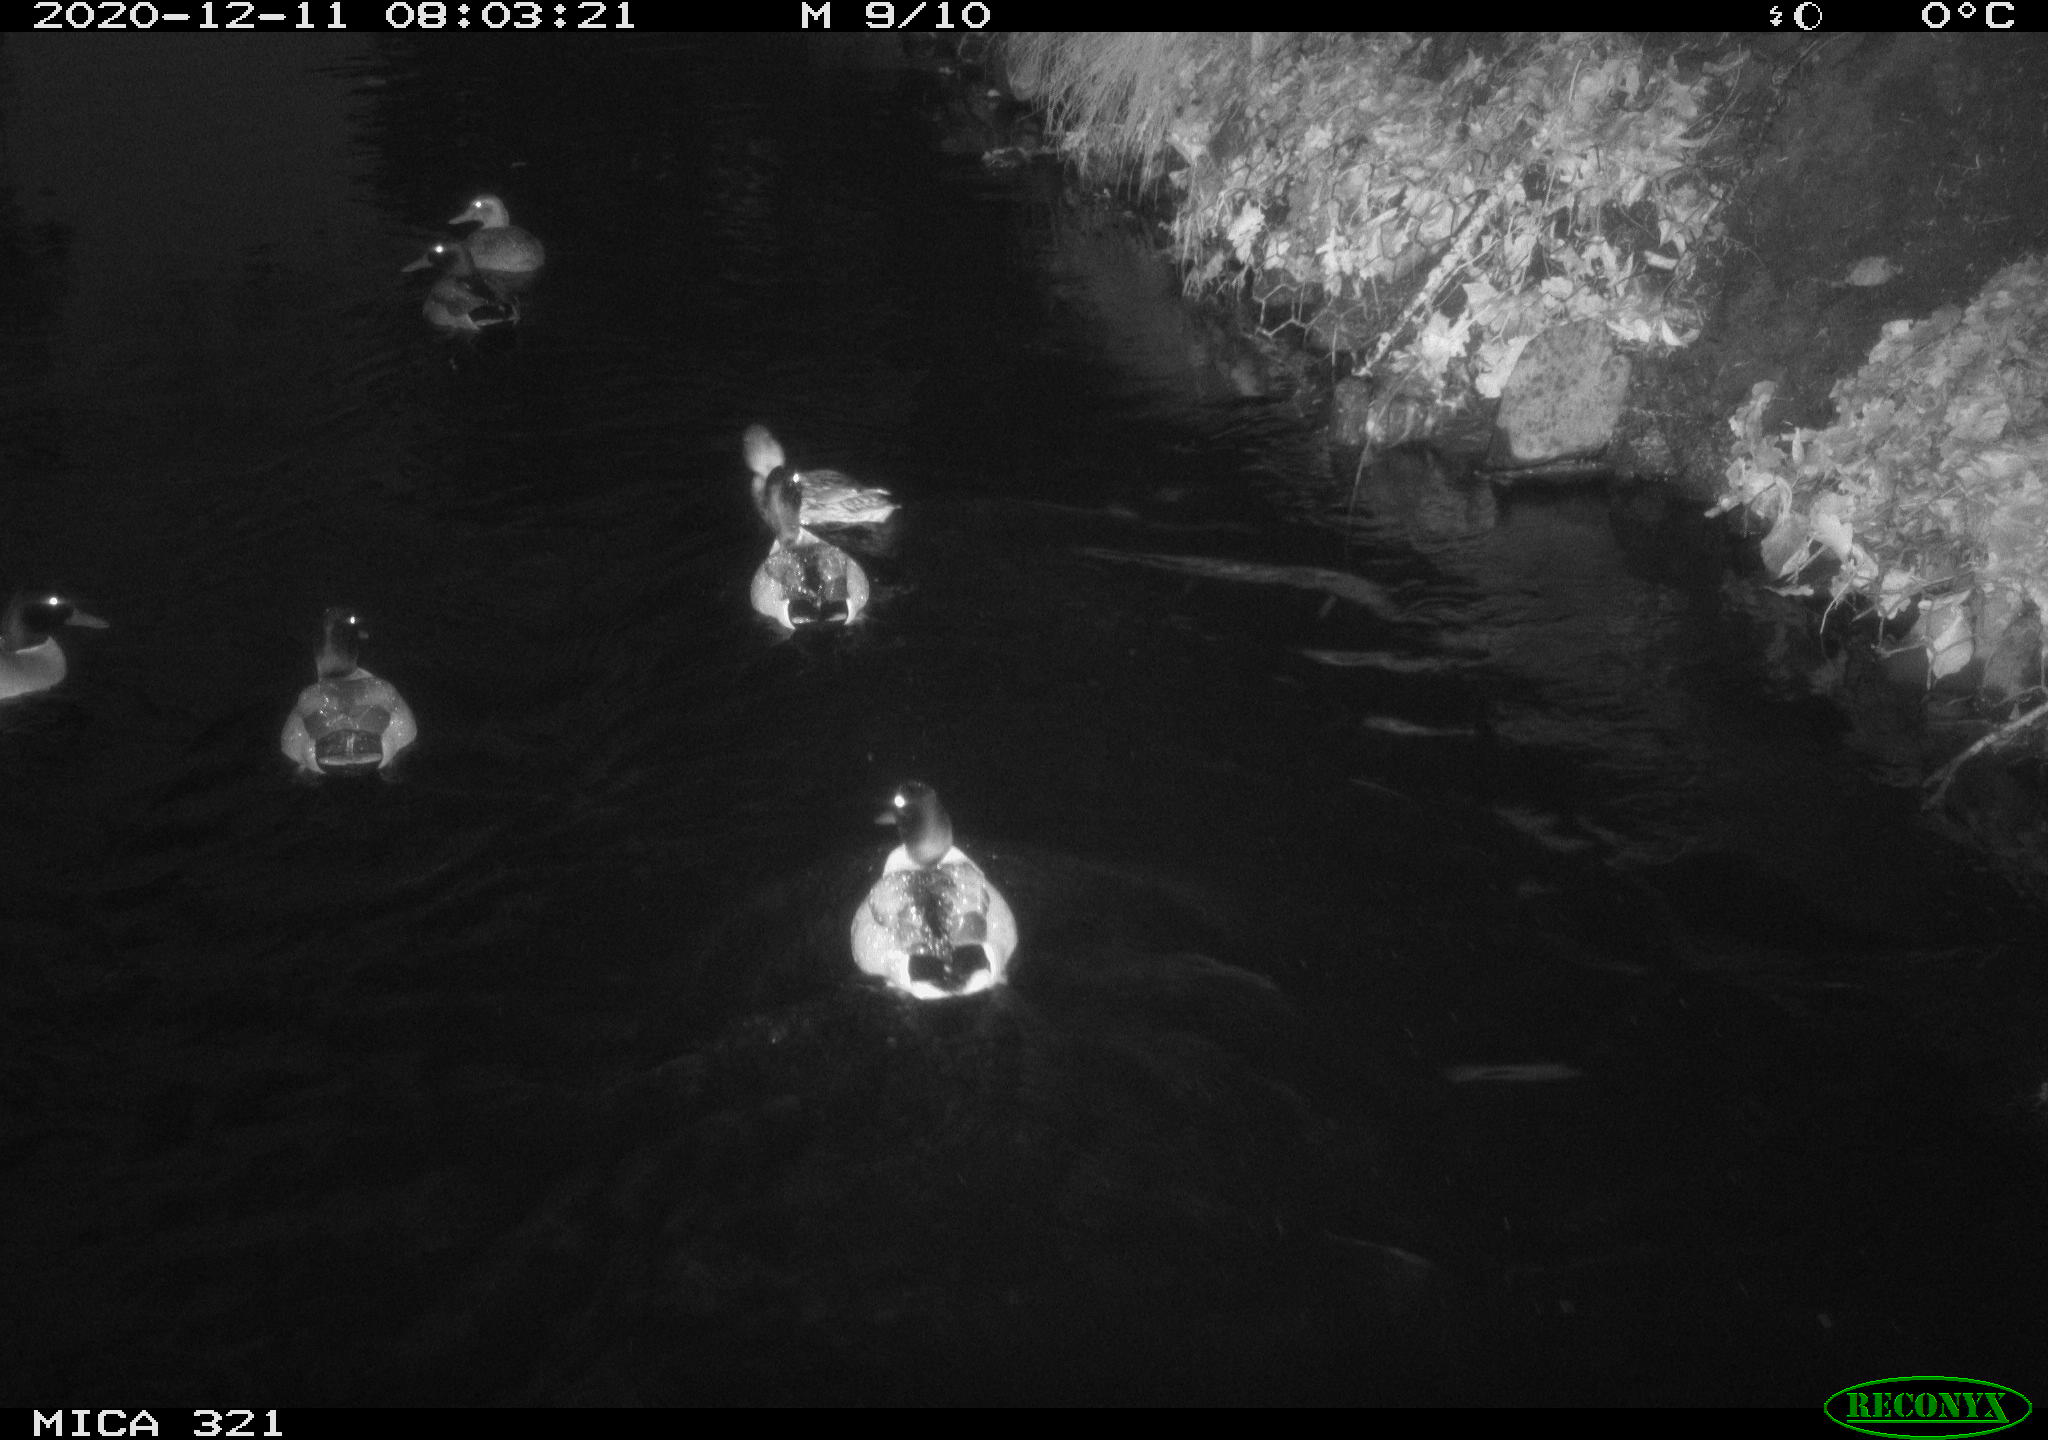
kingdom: Animalia
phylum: Chordata
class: Aves
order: Anseriformes
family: Anatidae
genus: Anas
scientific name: Anas platyrhynchos
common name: Mallard
